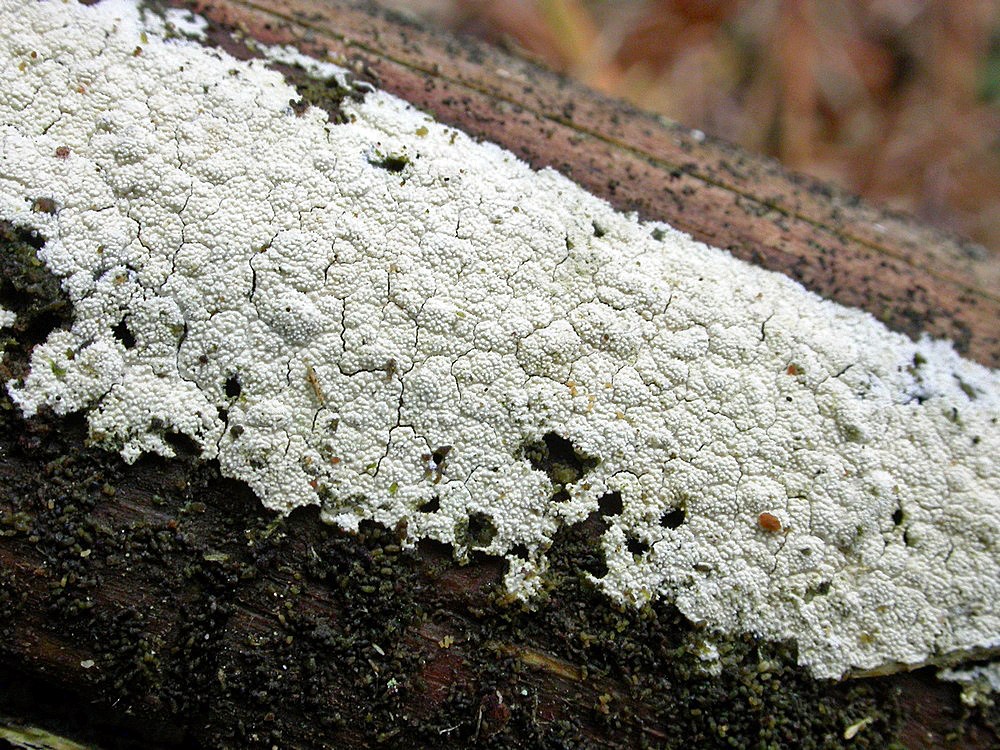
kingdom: Fungi
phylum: Basidiomycota
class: Agaricomycetes
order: Hymenochaetales
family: Schizoporaceae
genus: Xylodon
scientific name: Xylodon nesporii
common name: fintandet tandsvamp
